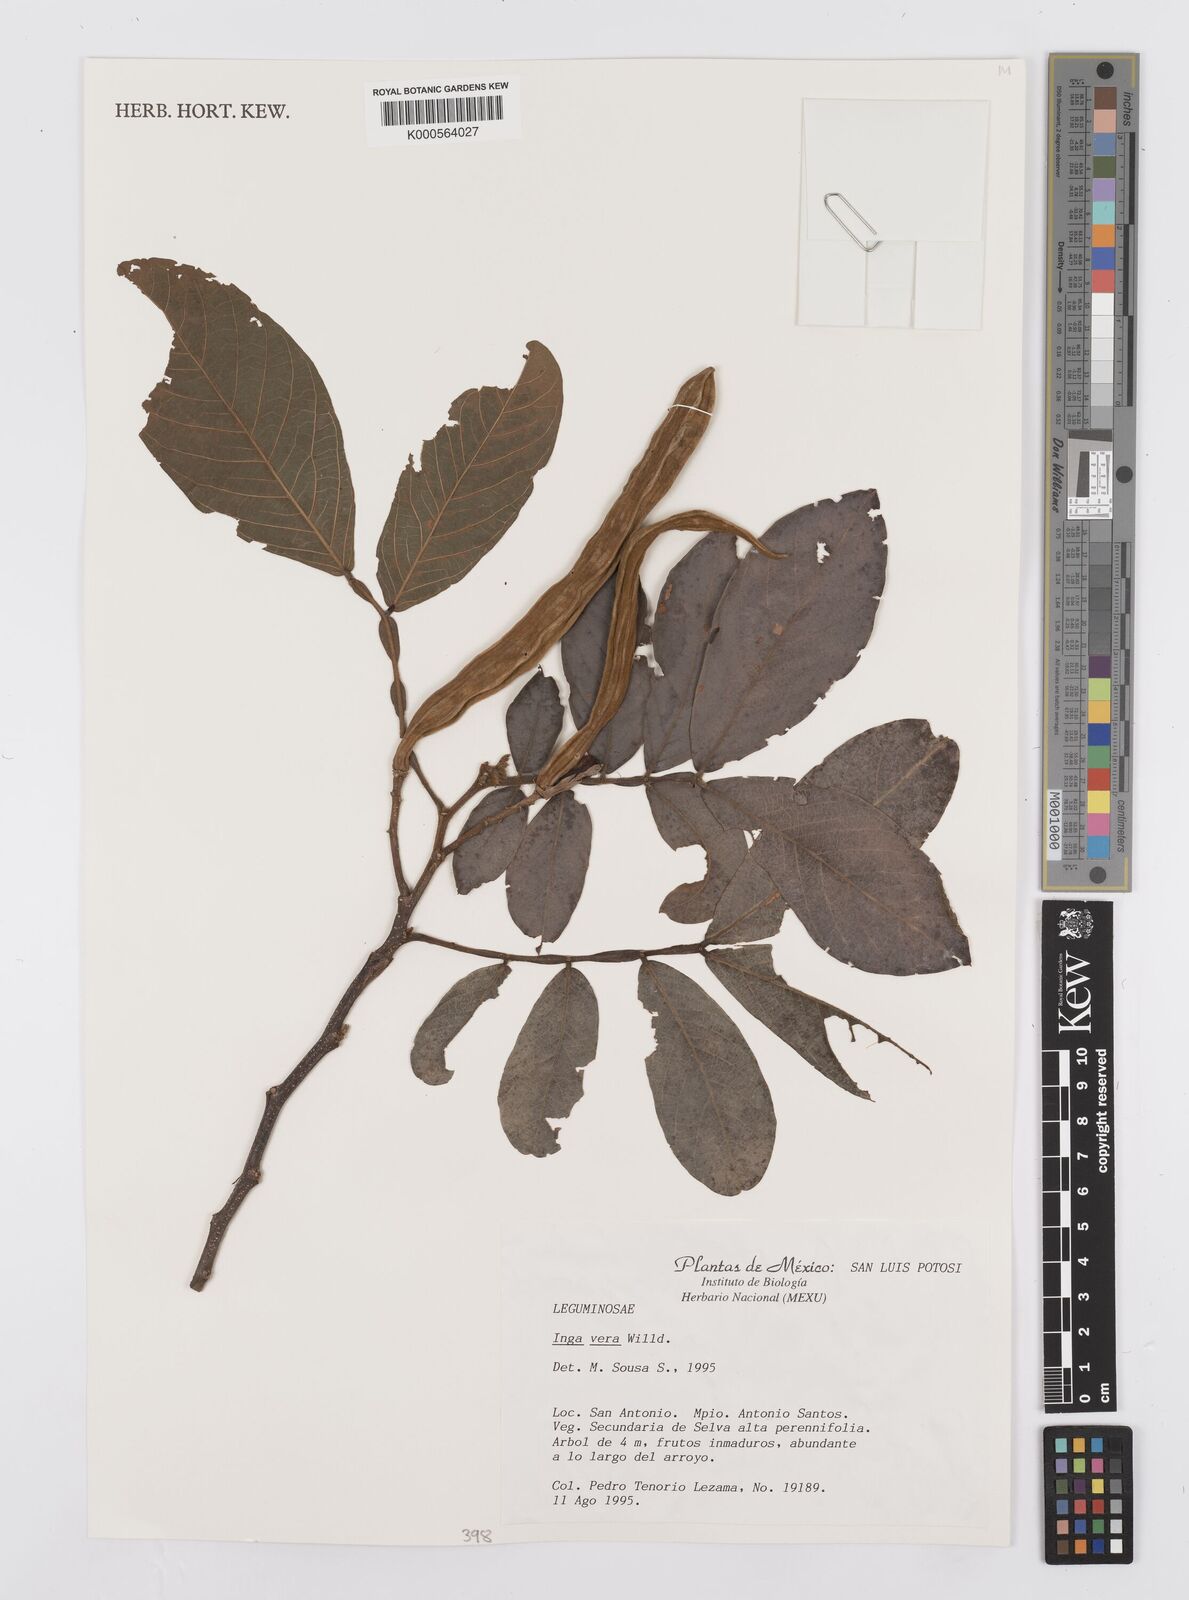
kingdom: Plantae
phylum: Tracheophyta
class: Magnoliopsida
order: Fabales
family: Fabaceae
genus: Inga
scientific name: Inga vera
